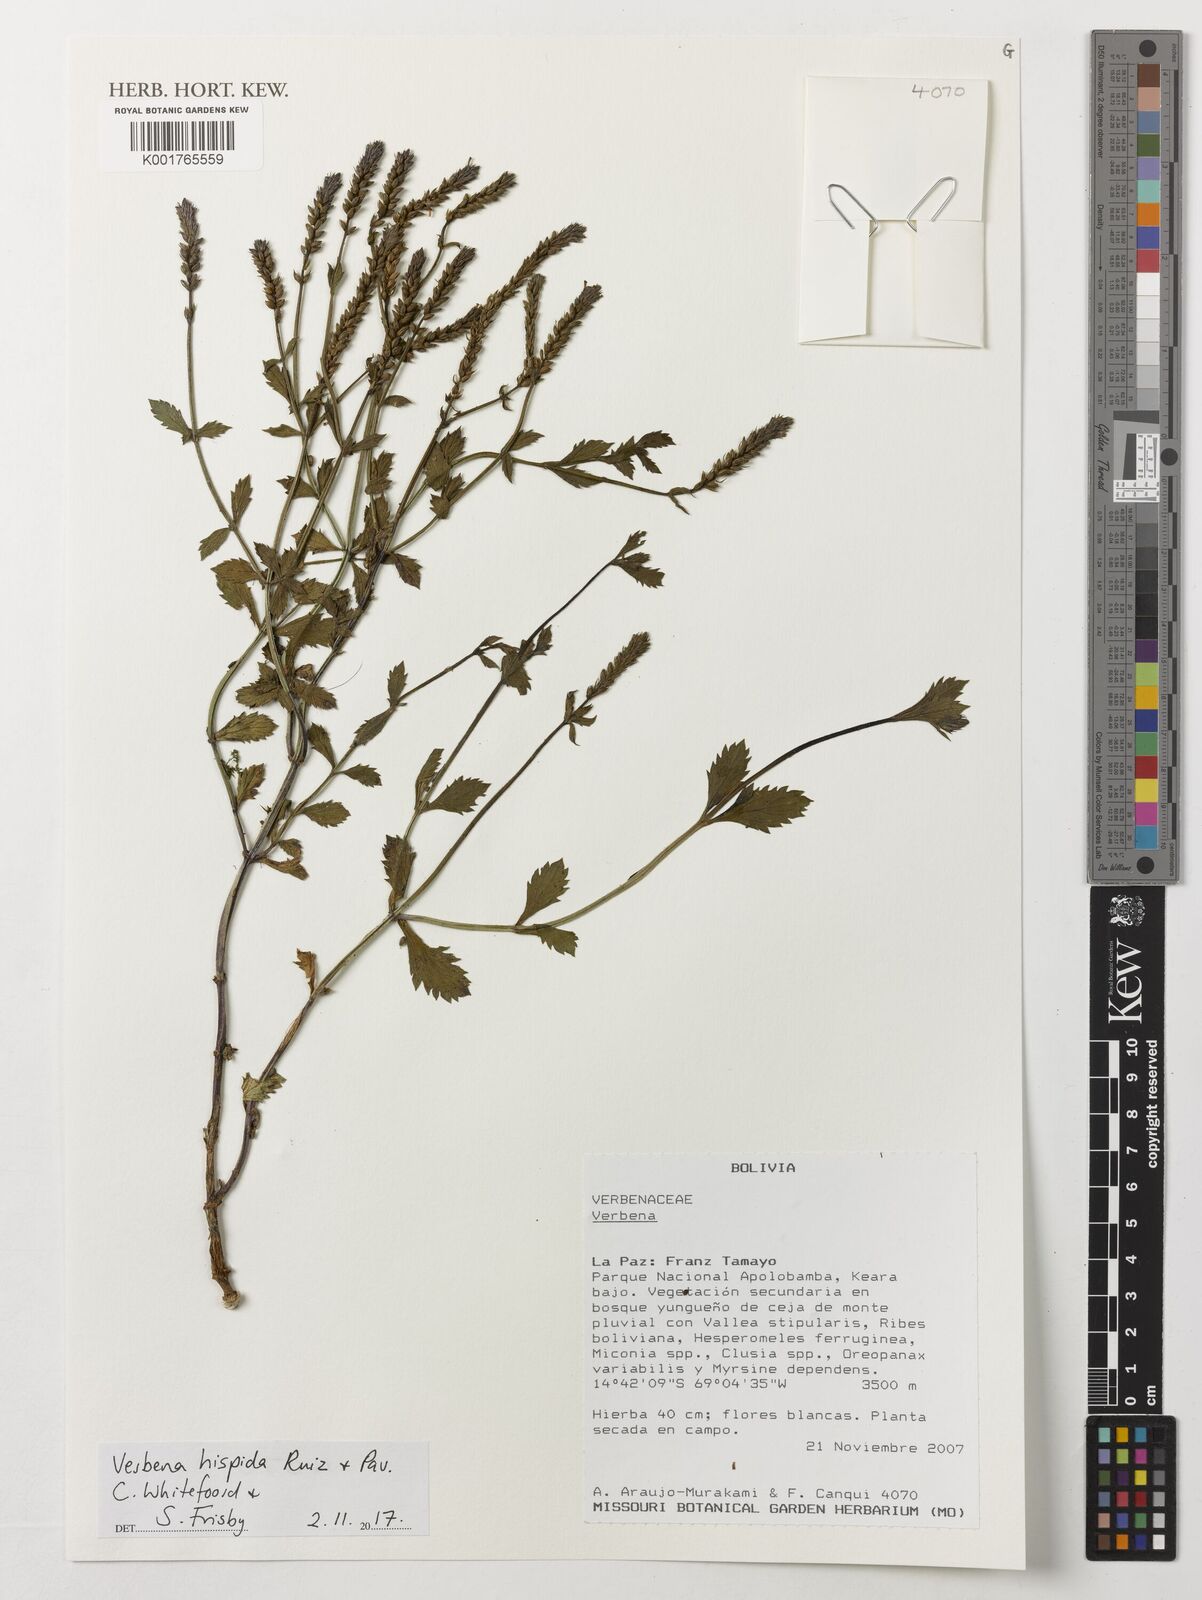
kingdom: Plantae
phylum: Tracheophyta
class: Magnoliopsida
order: Lamiales
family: Verbenaceae
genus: Verbena
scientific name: Verbena hispida
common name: Hairy vervain
